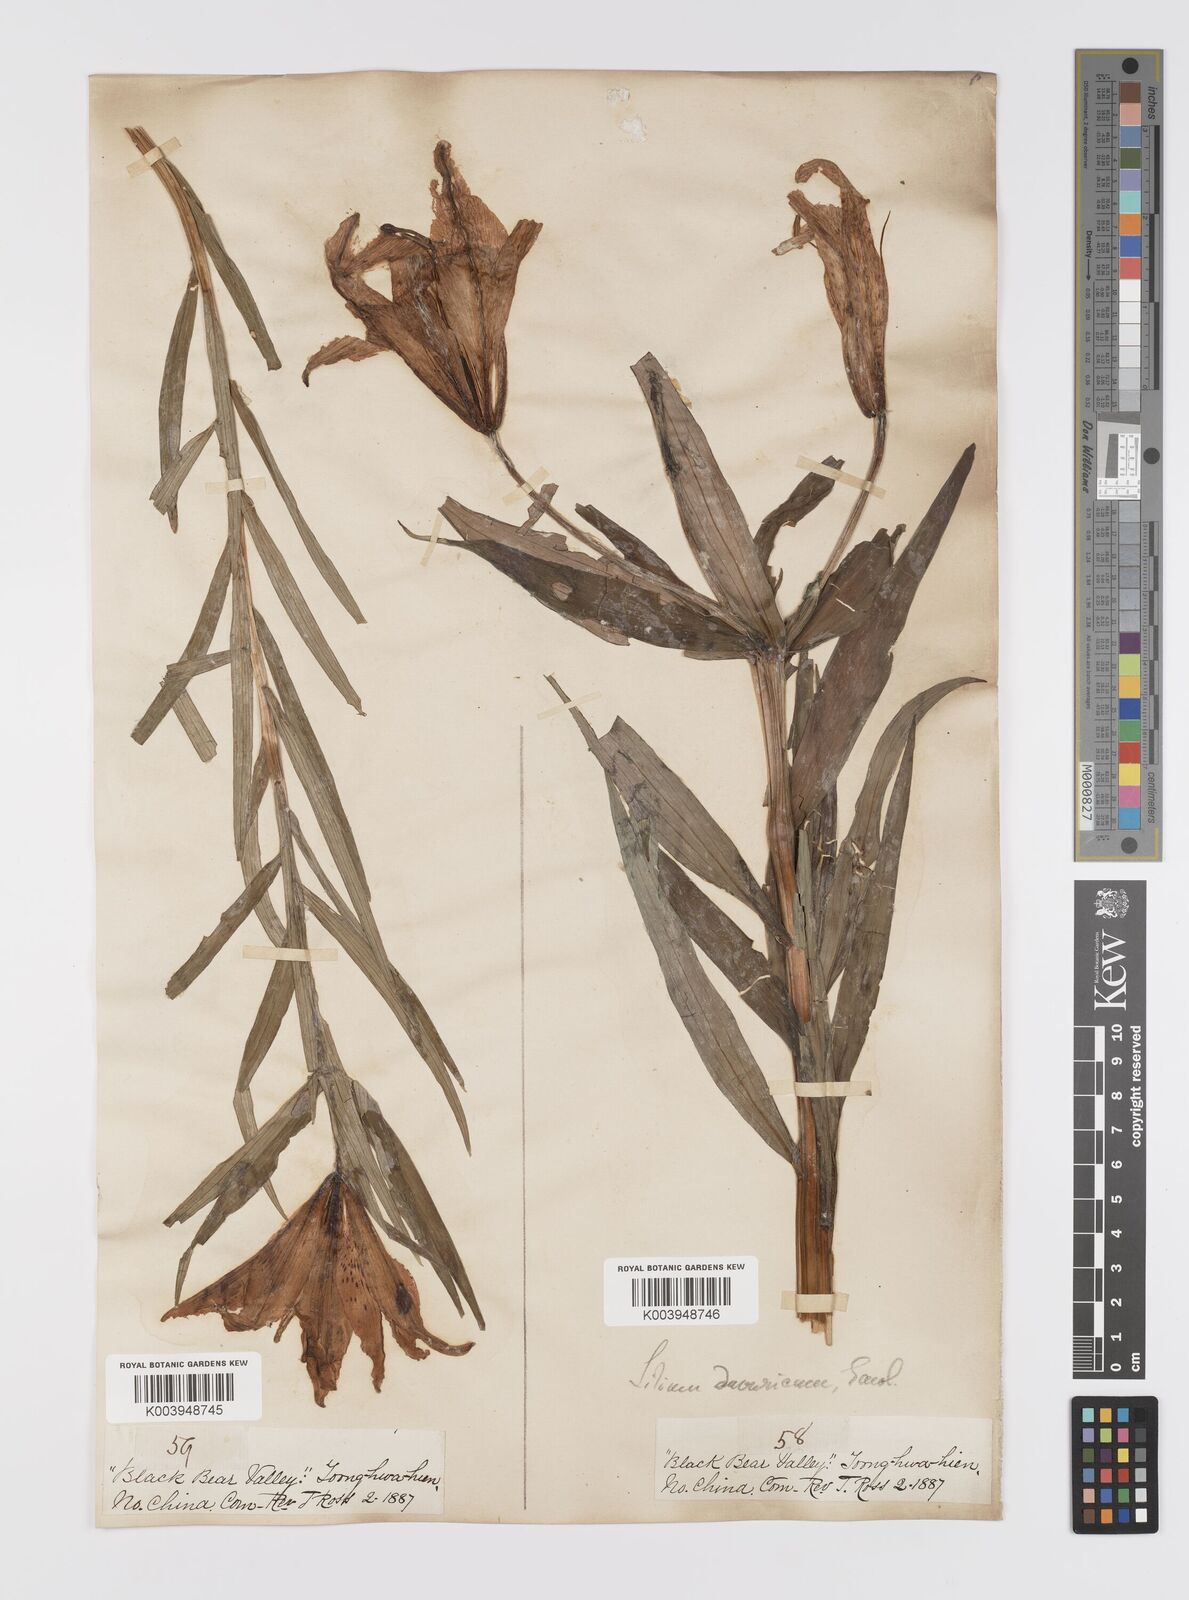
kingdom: Plantae
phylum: Tracheophyta
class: Liliopsida
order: Liliales
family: Liliaceae
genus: Lilium
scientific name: Lilium pensylvanicum
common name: Candlestick lily
